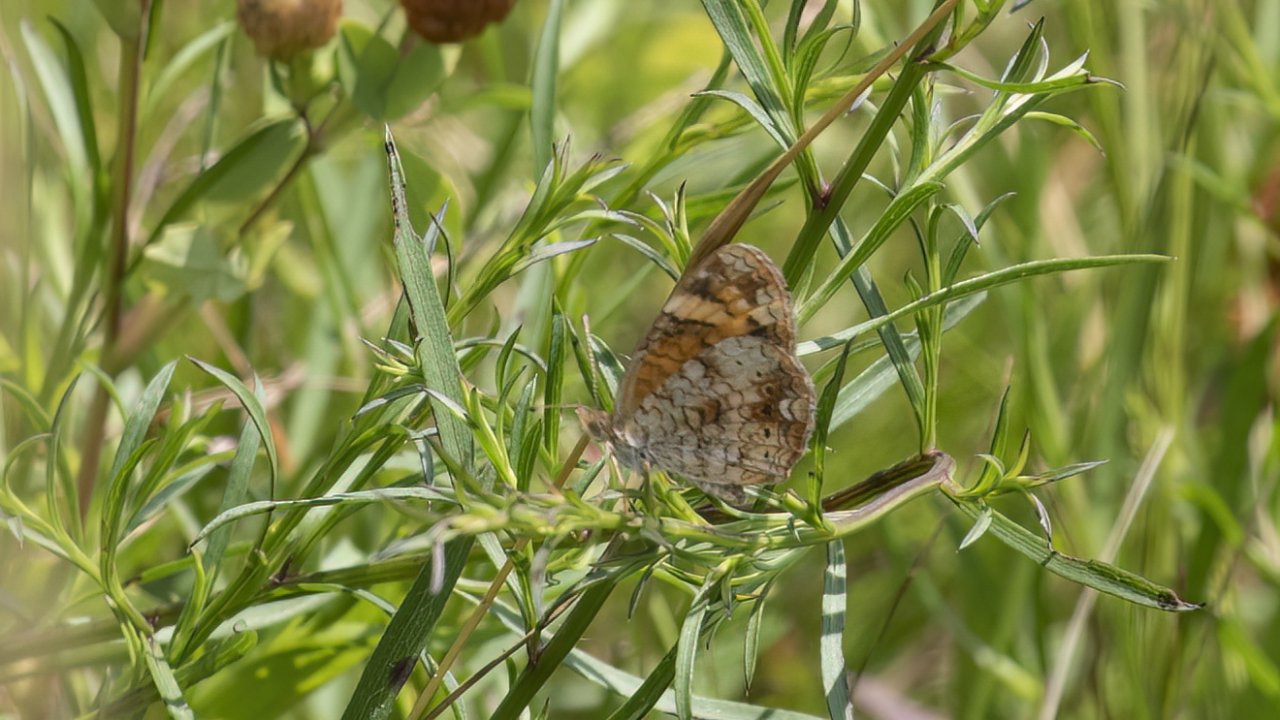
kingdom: Animalia
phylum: Arthropoda
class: Insecta
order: Lepidoptera
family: Nymphalidae
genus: Phyciodes
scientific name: Phyciodes tharos
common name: Pearl Crescent
